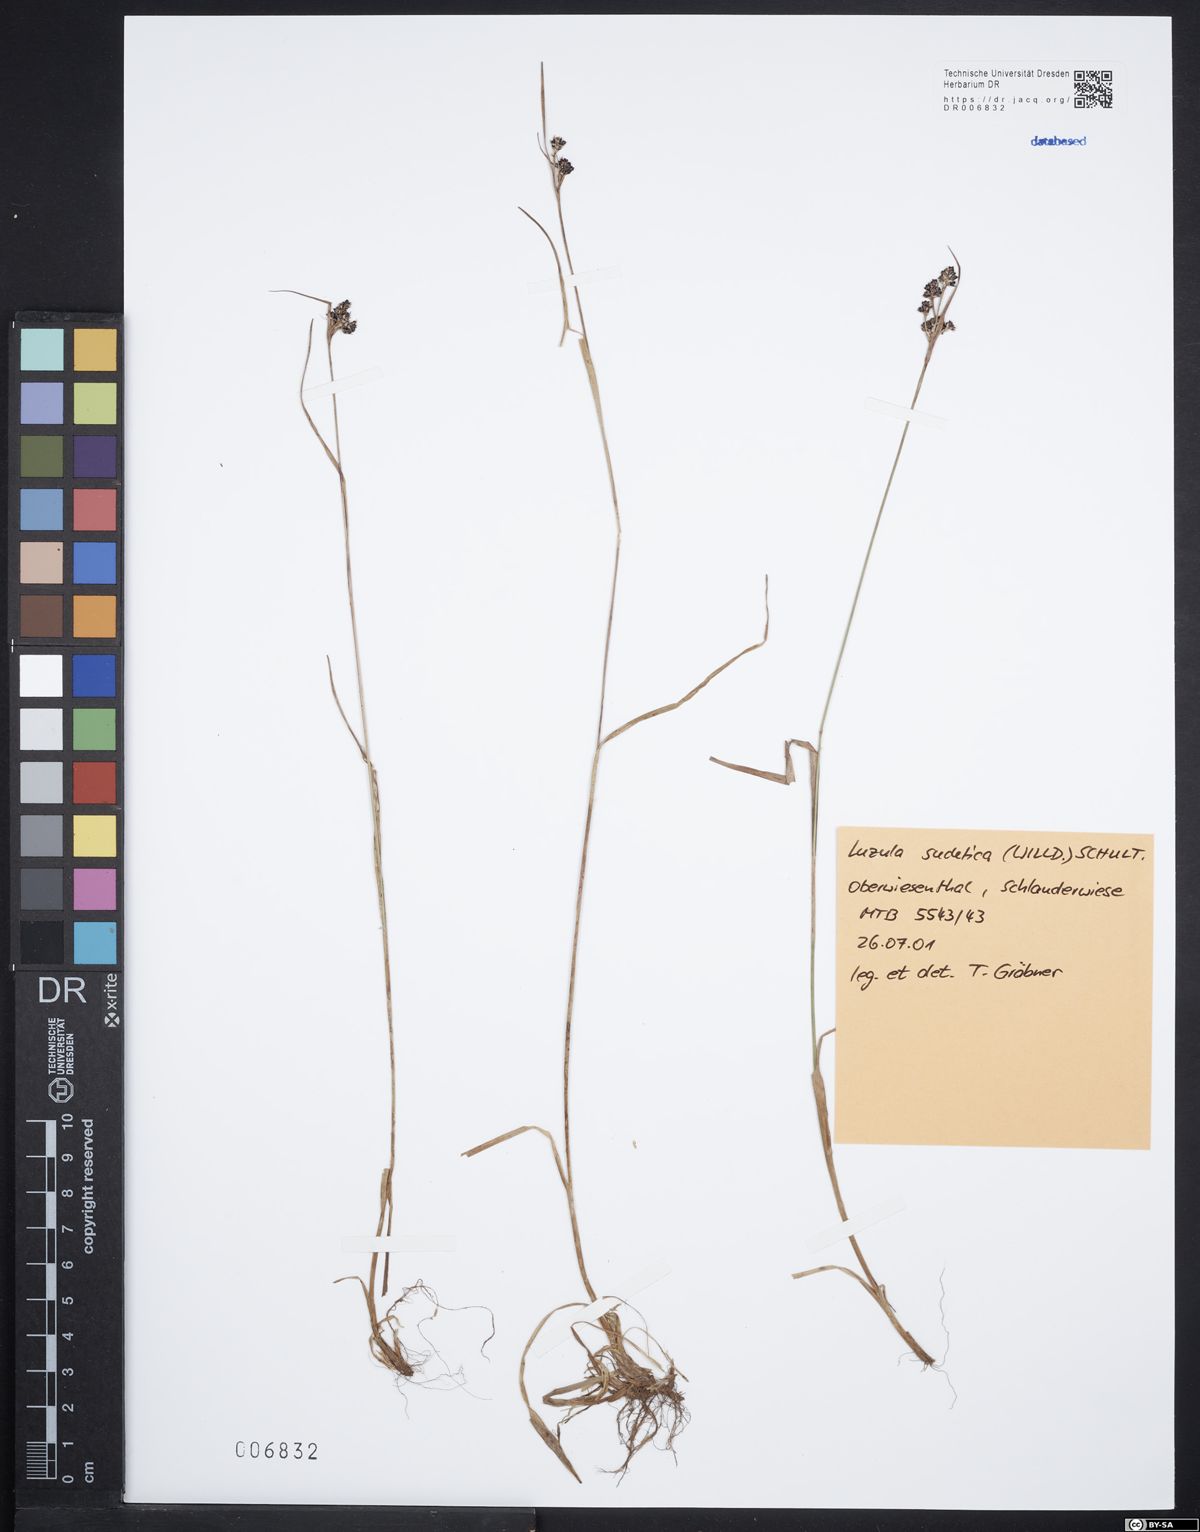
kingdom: Plantae
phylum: Tracheophyta
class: Liliopsida
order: Poales
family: Juncaceae
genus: Luzula
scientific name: Luzula sudetica
